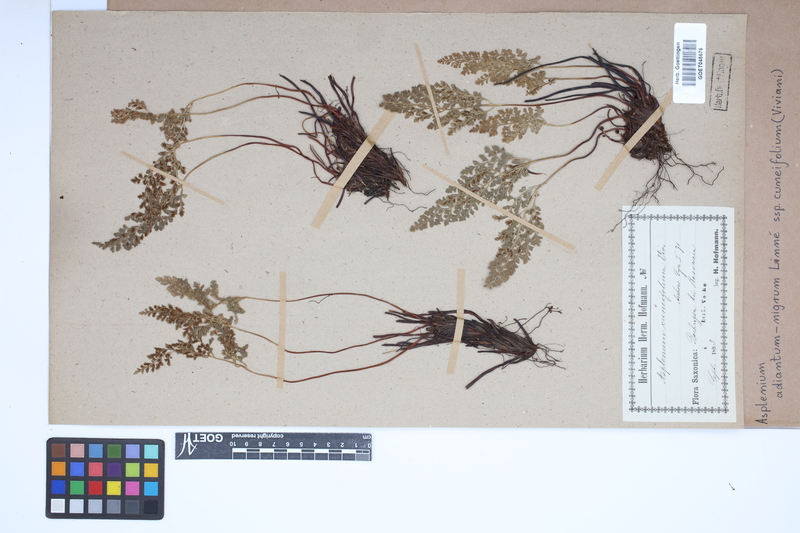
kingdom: Plantae
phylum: Tracheophyta
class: Polypodiopsida
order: Polypodiales
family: Aspleniaceae
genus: Asplenium
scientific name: Asplenium cuneifolium
